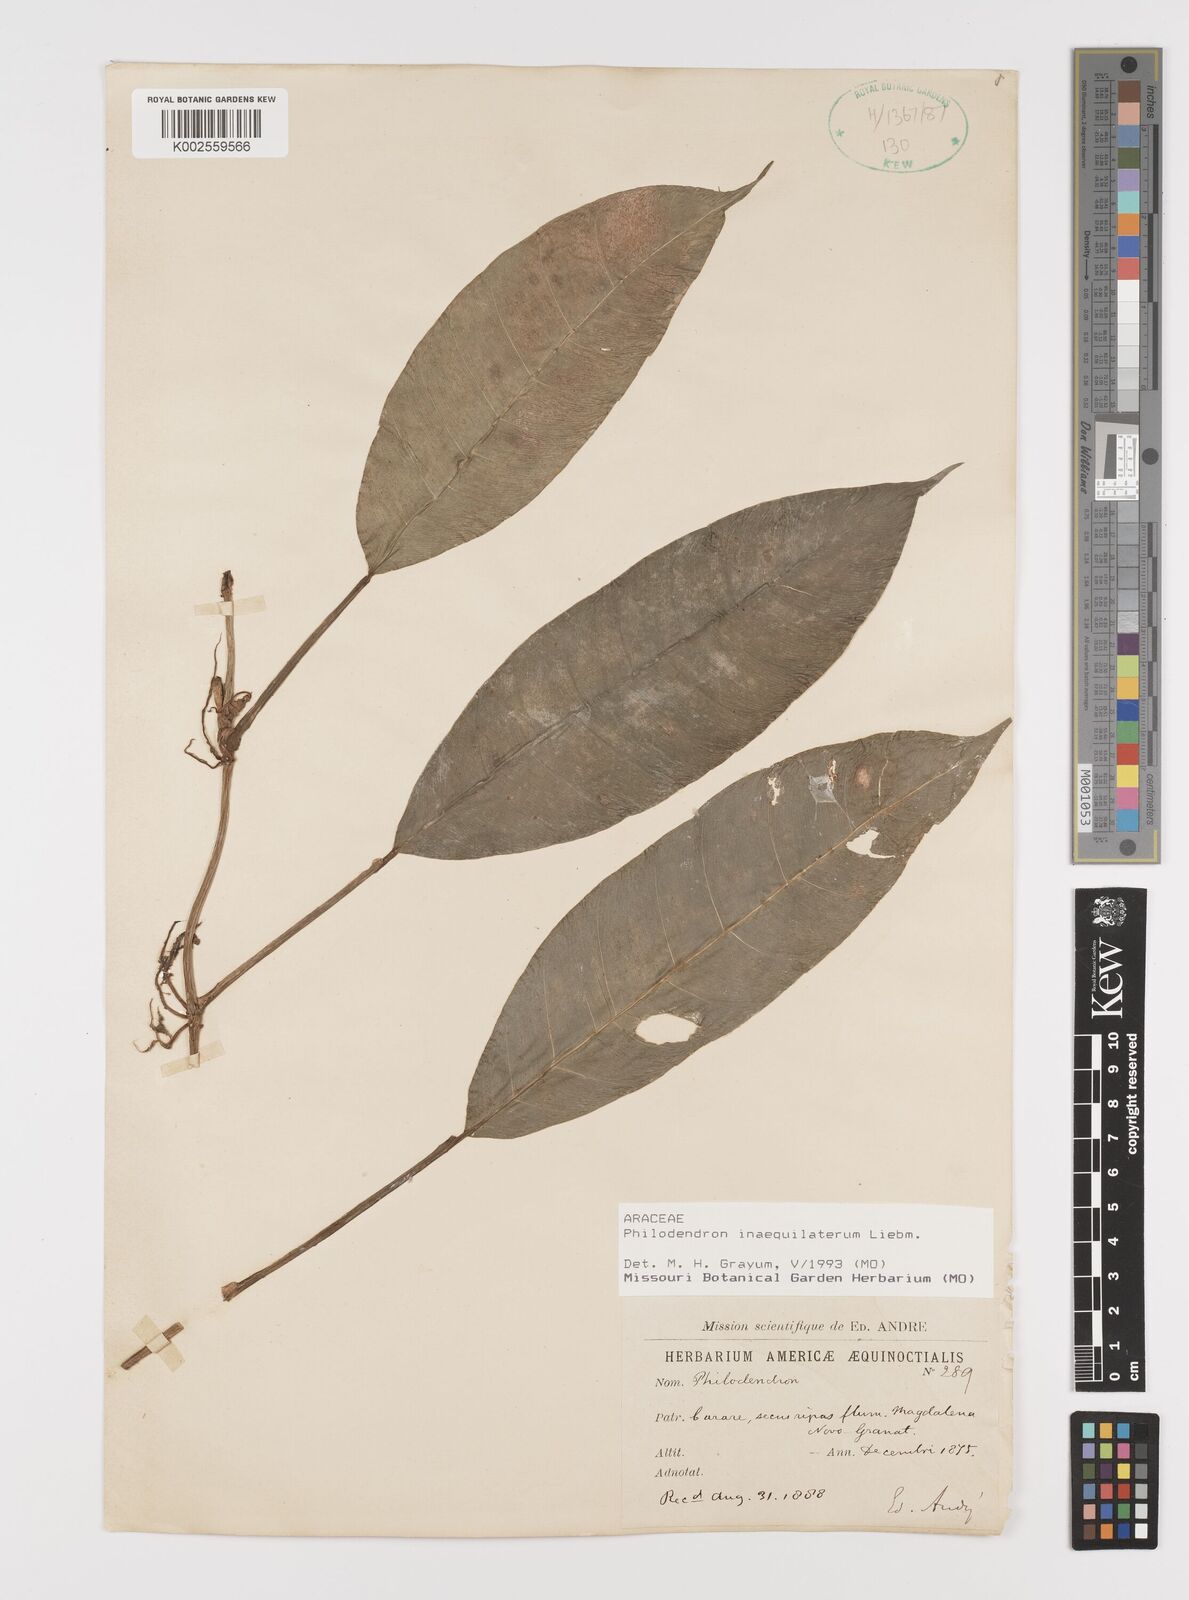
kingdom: Plantae
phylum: Tracheophyta
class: Liliopsida
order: Alismatales
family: Araceae
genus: Philodendron
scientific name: Philodendron inaequilaterum
